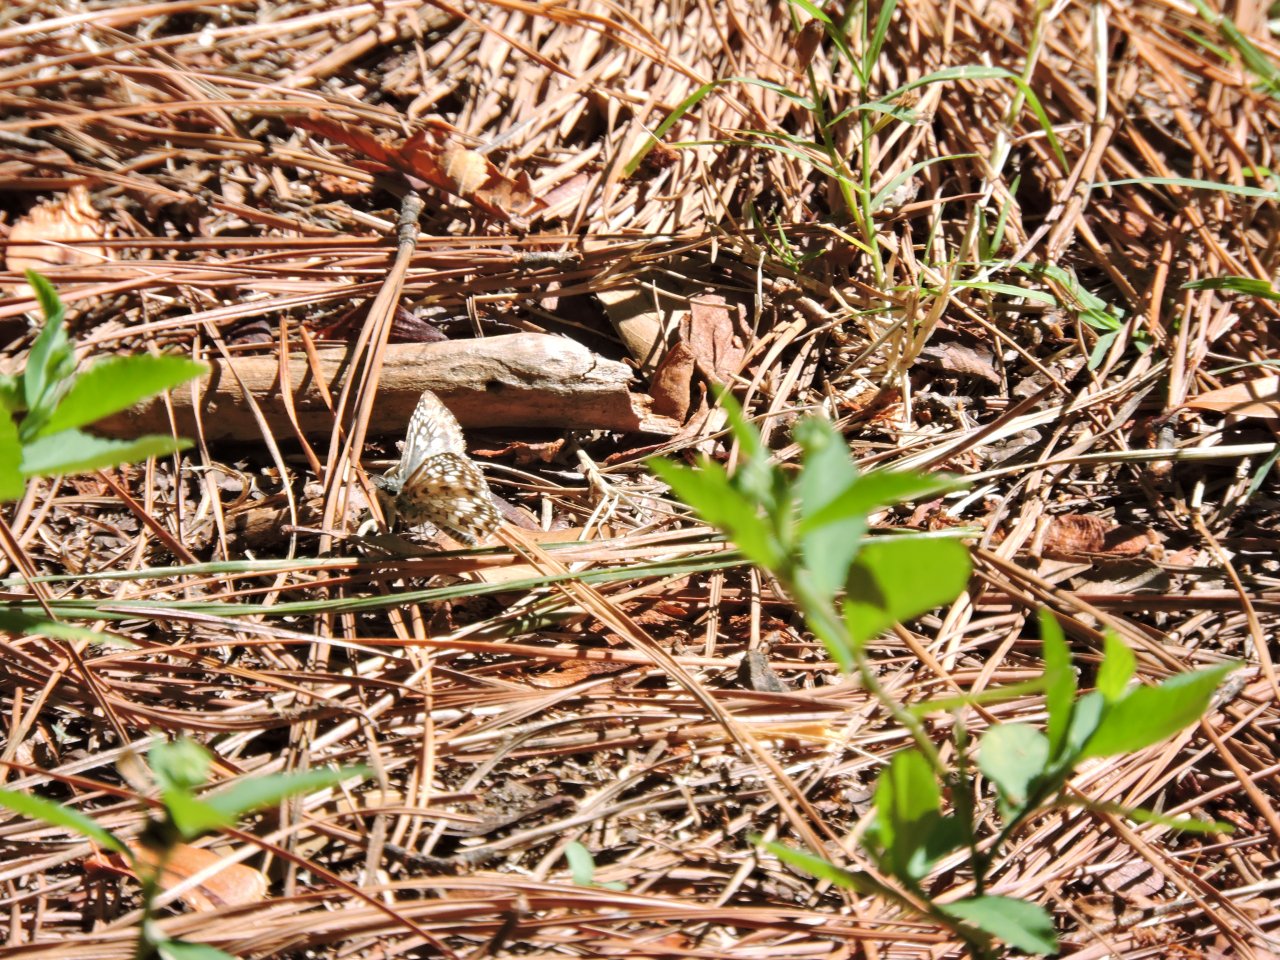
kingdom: Animalia
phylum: Arthropoda
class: Insecta
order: Lepidoptera
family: Hesperiidae
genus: Pyrgus
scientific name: Pyrgus oileus
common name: Tropical Checkered-Skipper
